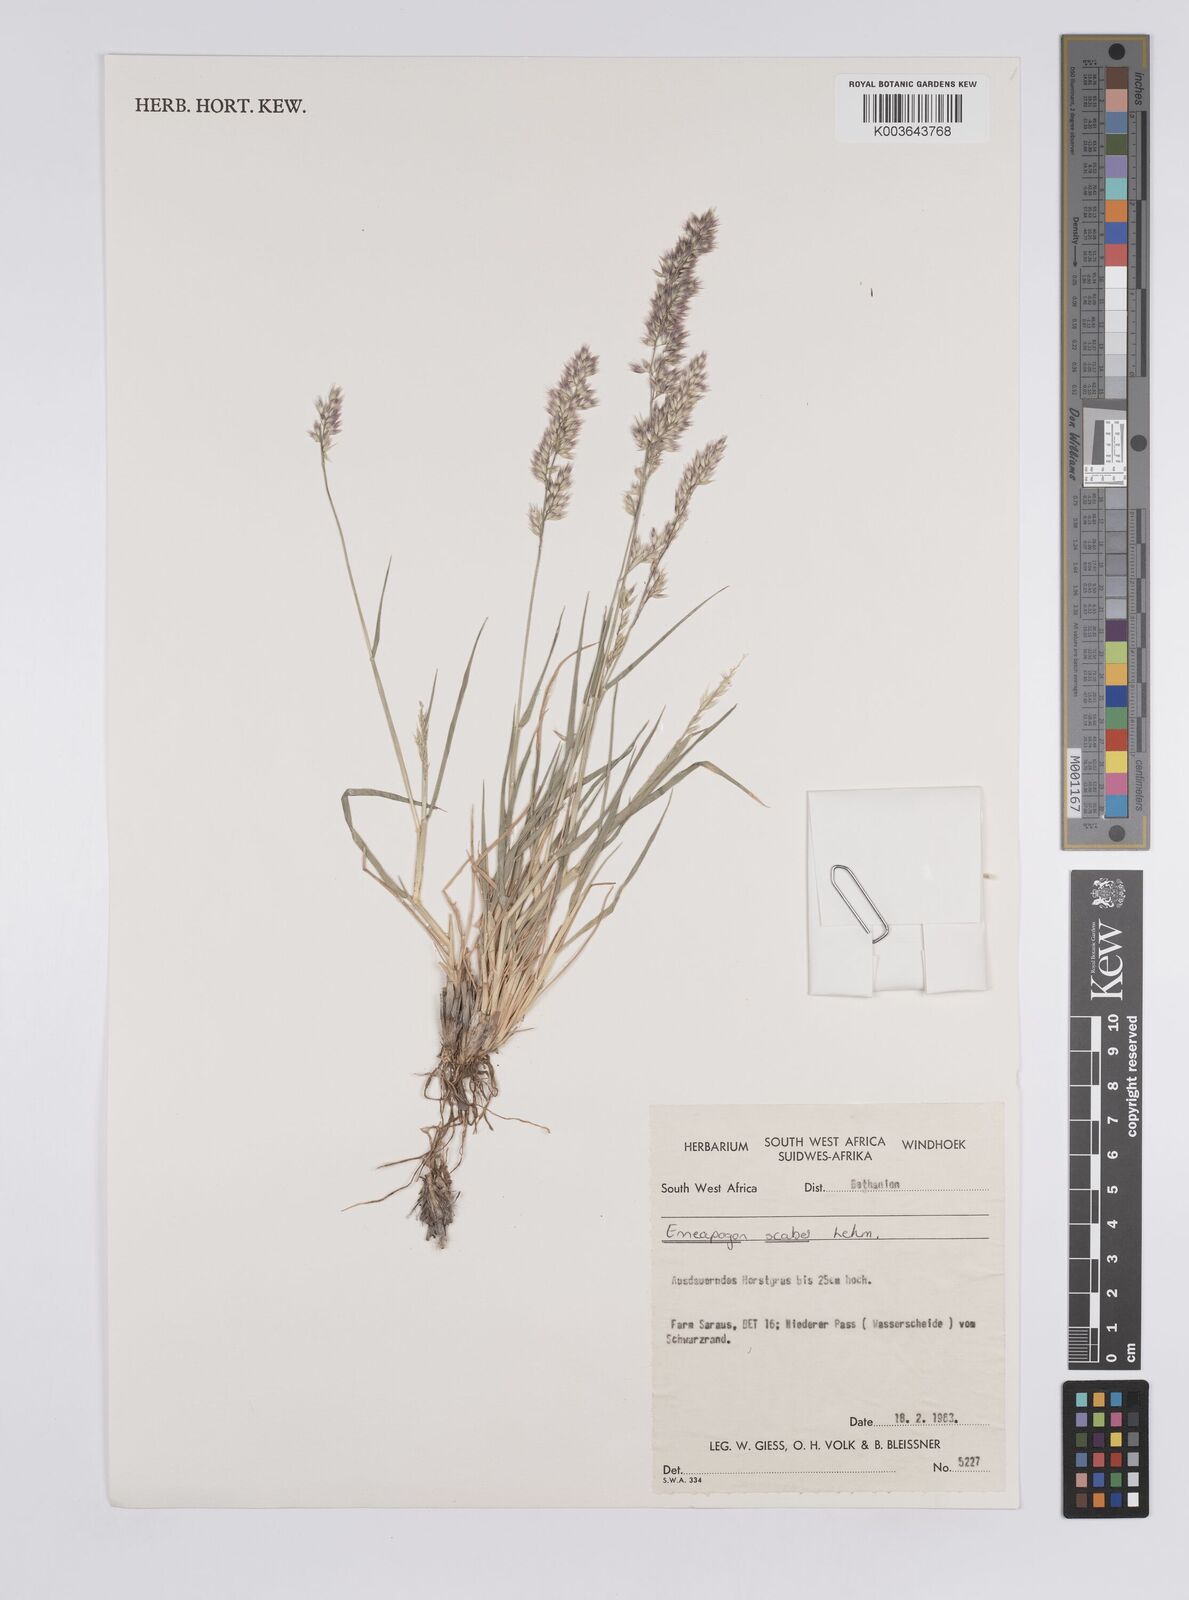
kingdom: Plantae
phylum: Tracheophyta
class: Liliopsida
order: Poales
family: Poaceae
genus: Enneapogon
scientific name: Enneapogon scaber
